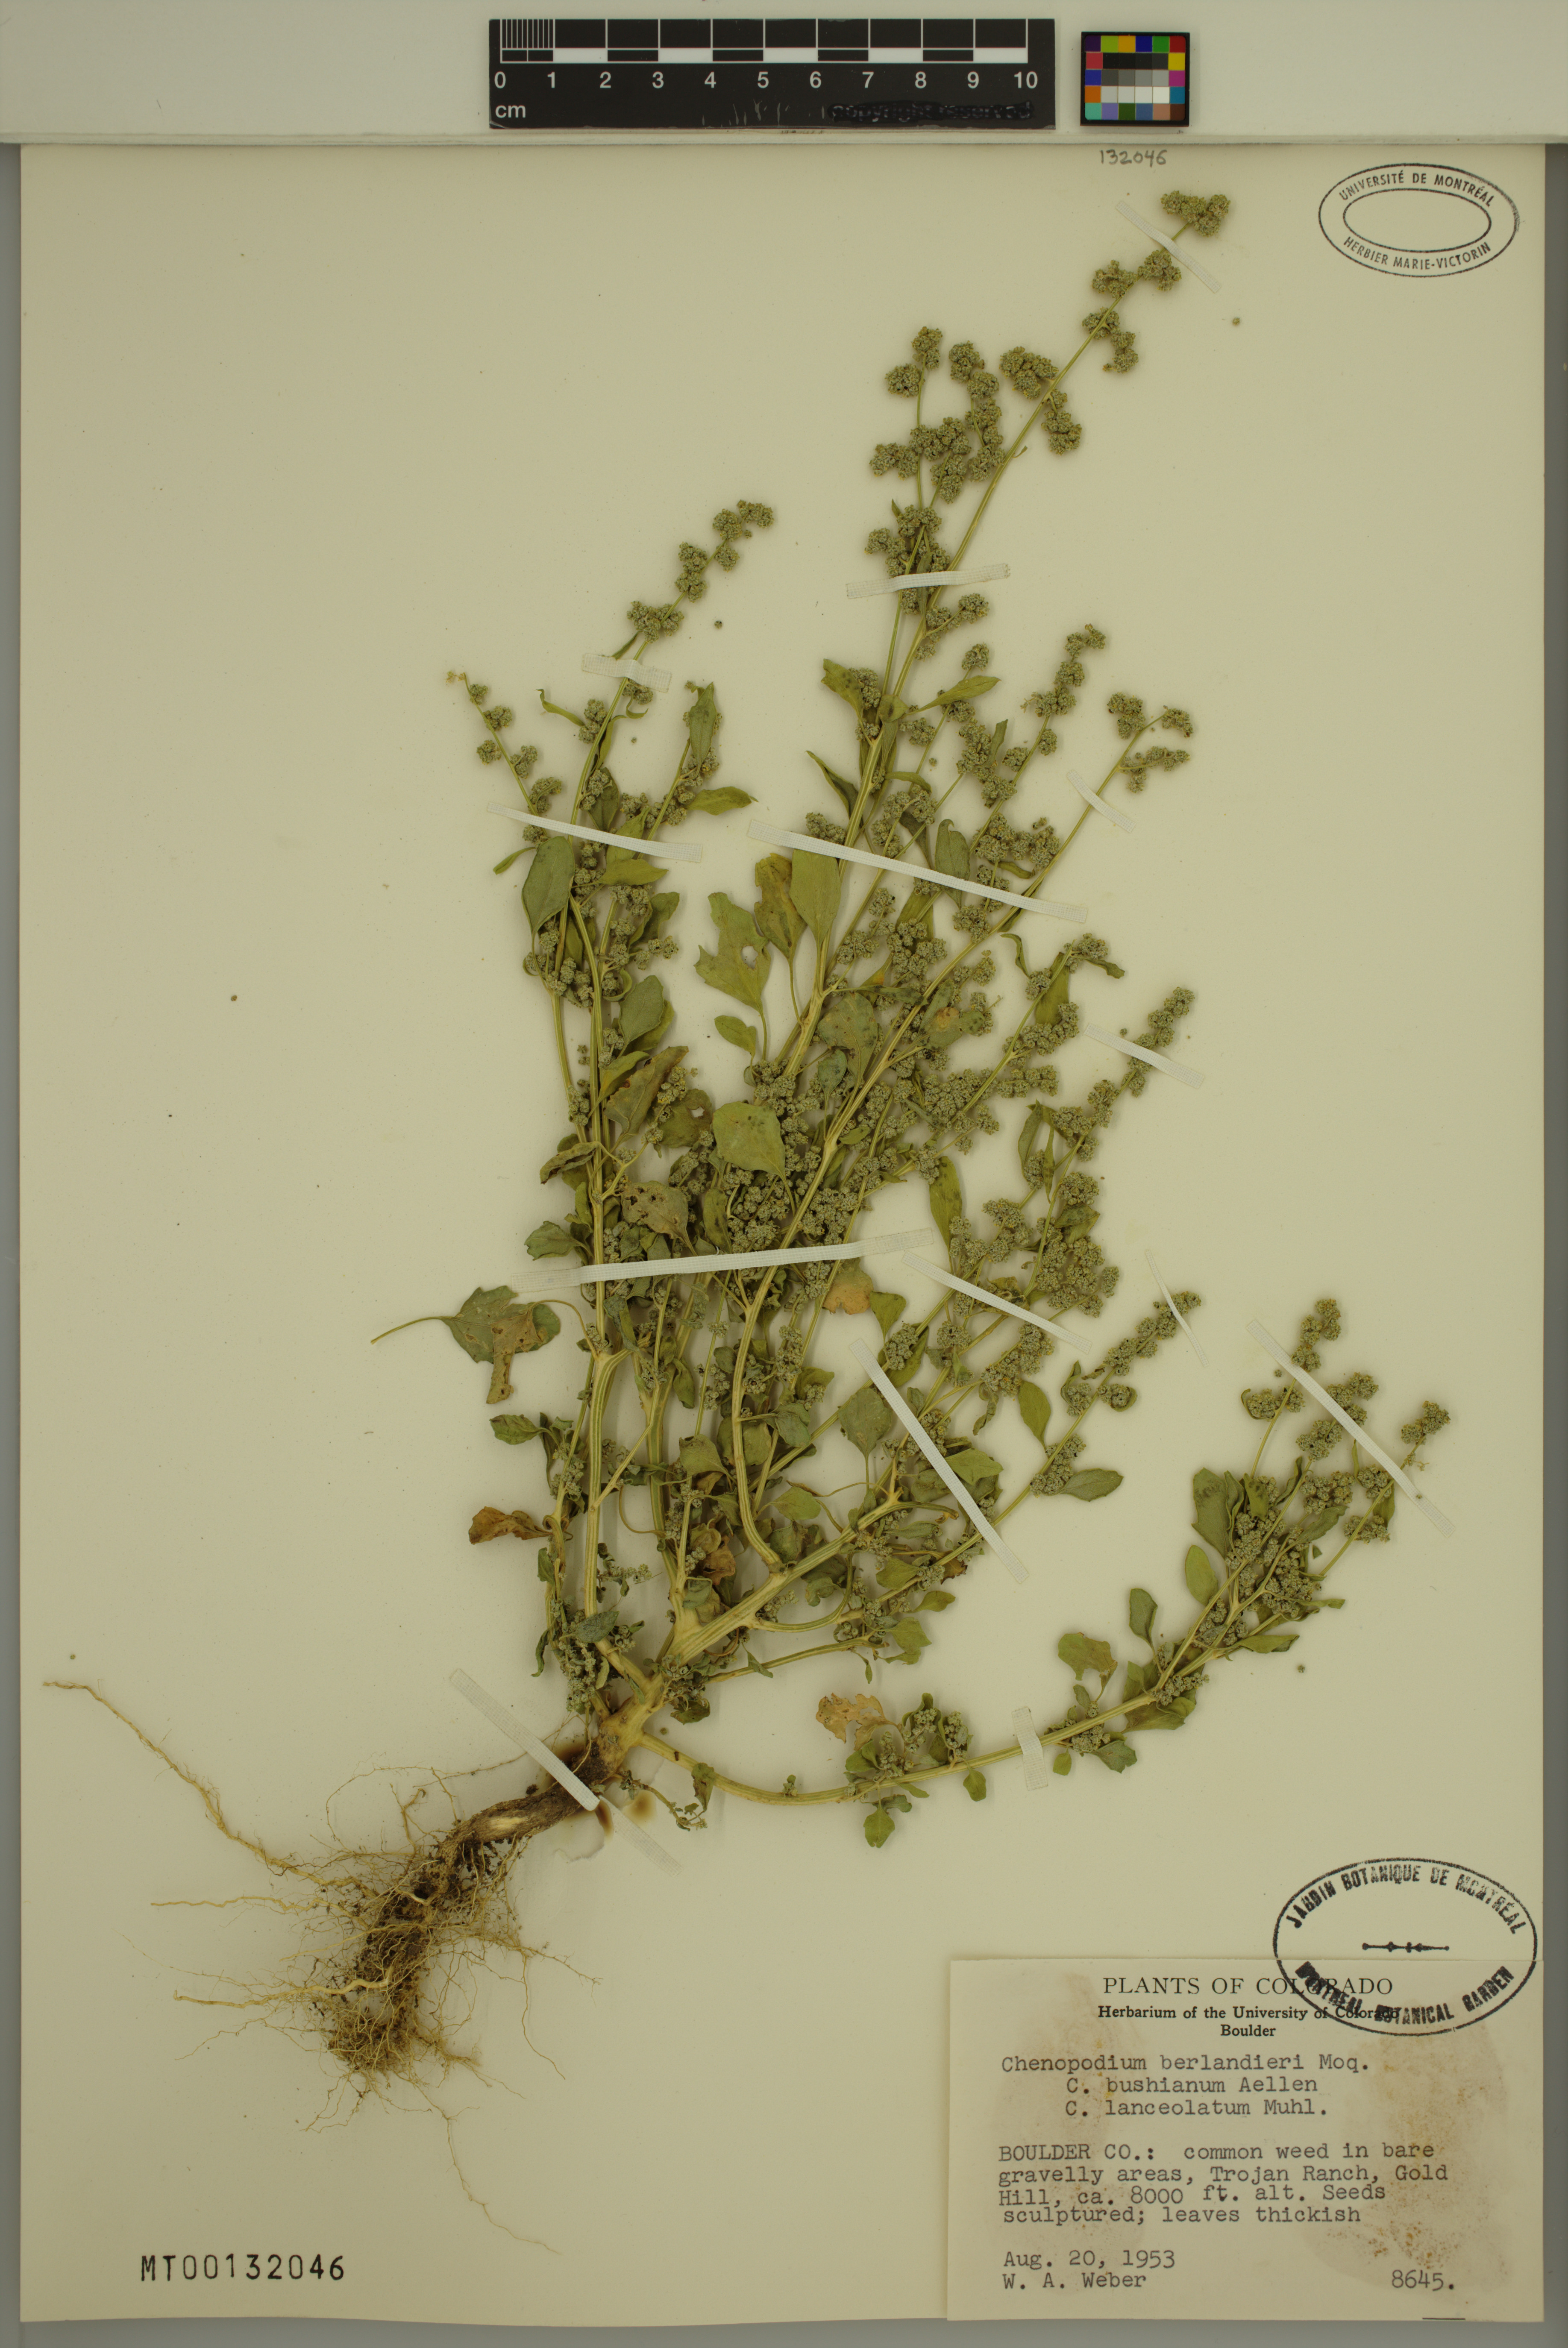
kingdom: Plantae
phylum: Tracheophyta
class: Magnoliopsida
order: Caryophyllales
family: Amaranthaceae
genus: Chenopodium
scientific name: Chenopodium berlandieri
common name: Pit-seed goosefoot
